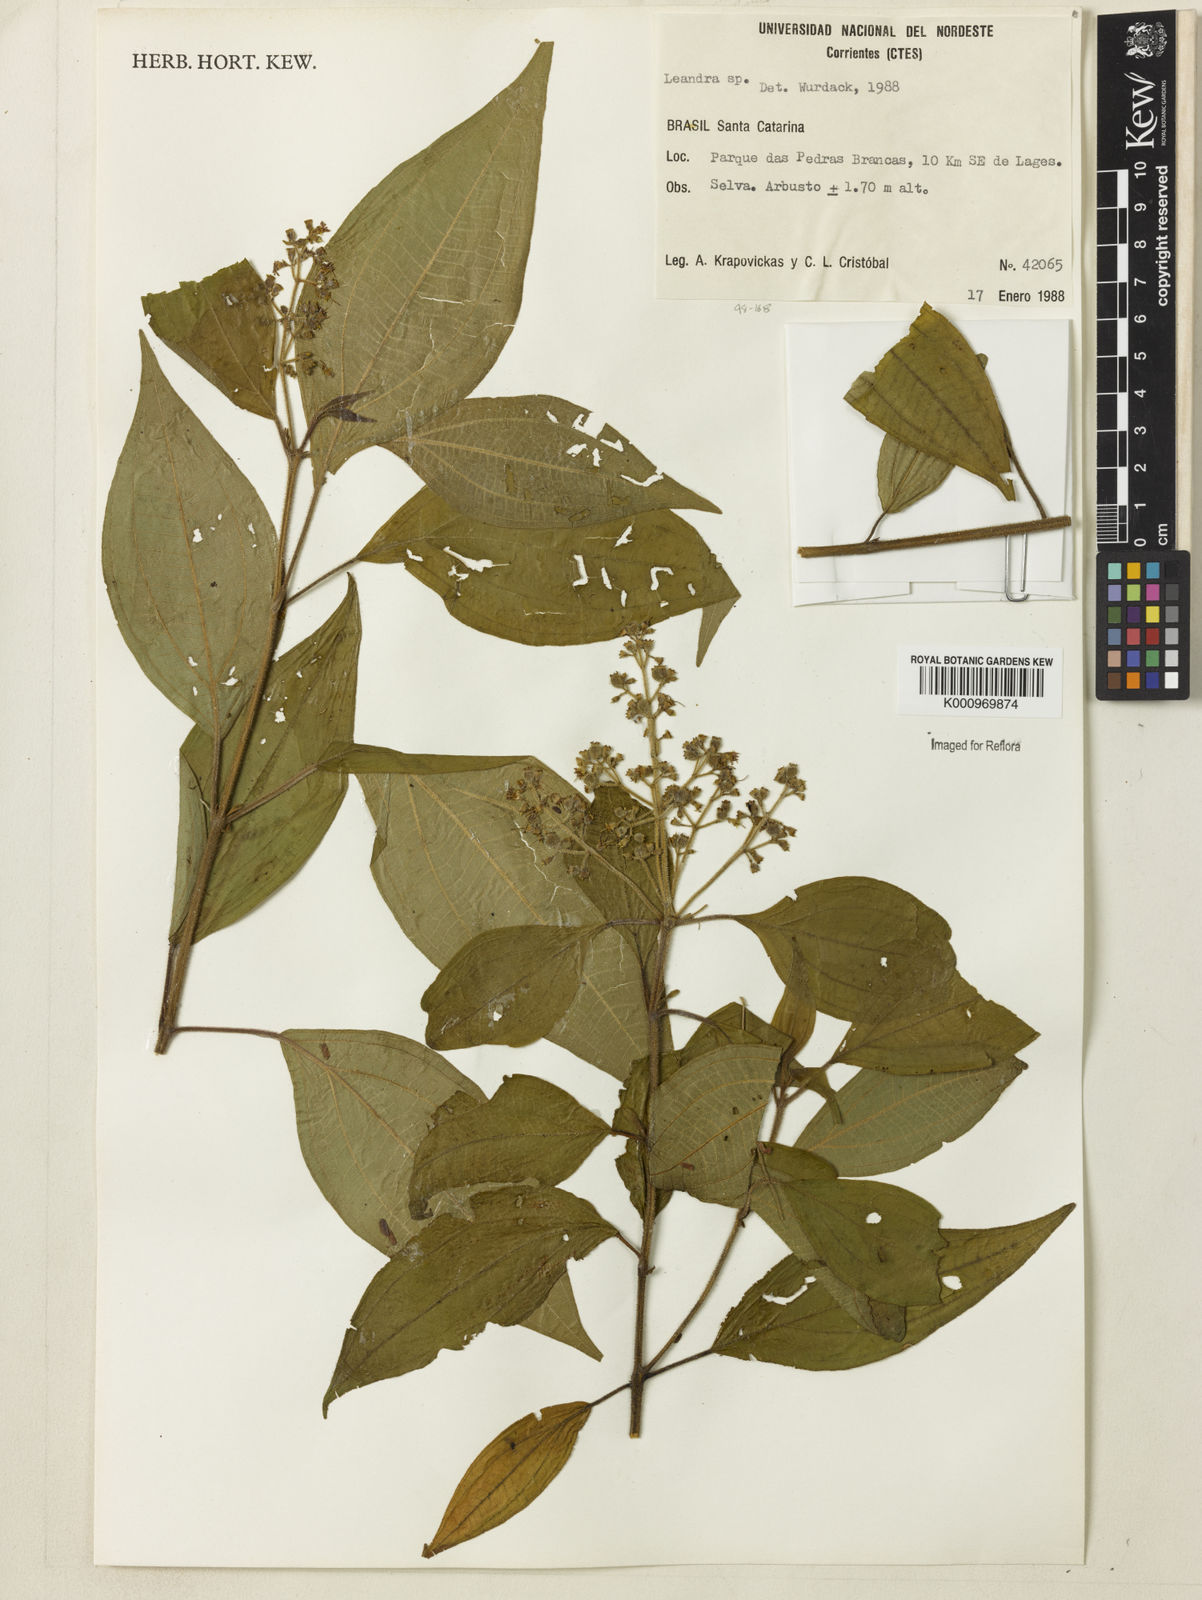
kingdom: Plantae
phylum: Tracheophyta
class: Magnoliopsida
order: Myrtales
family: Melastomataceae
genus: Miconia
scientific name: Miconia
